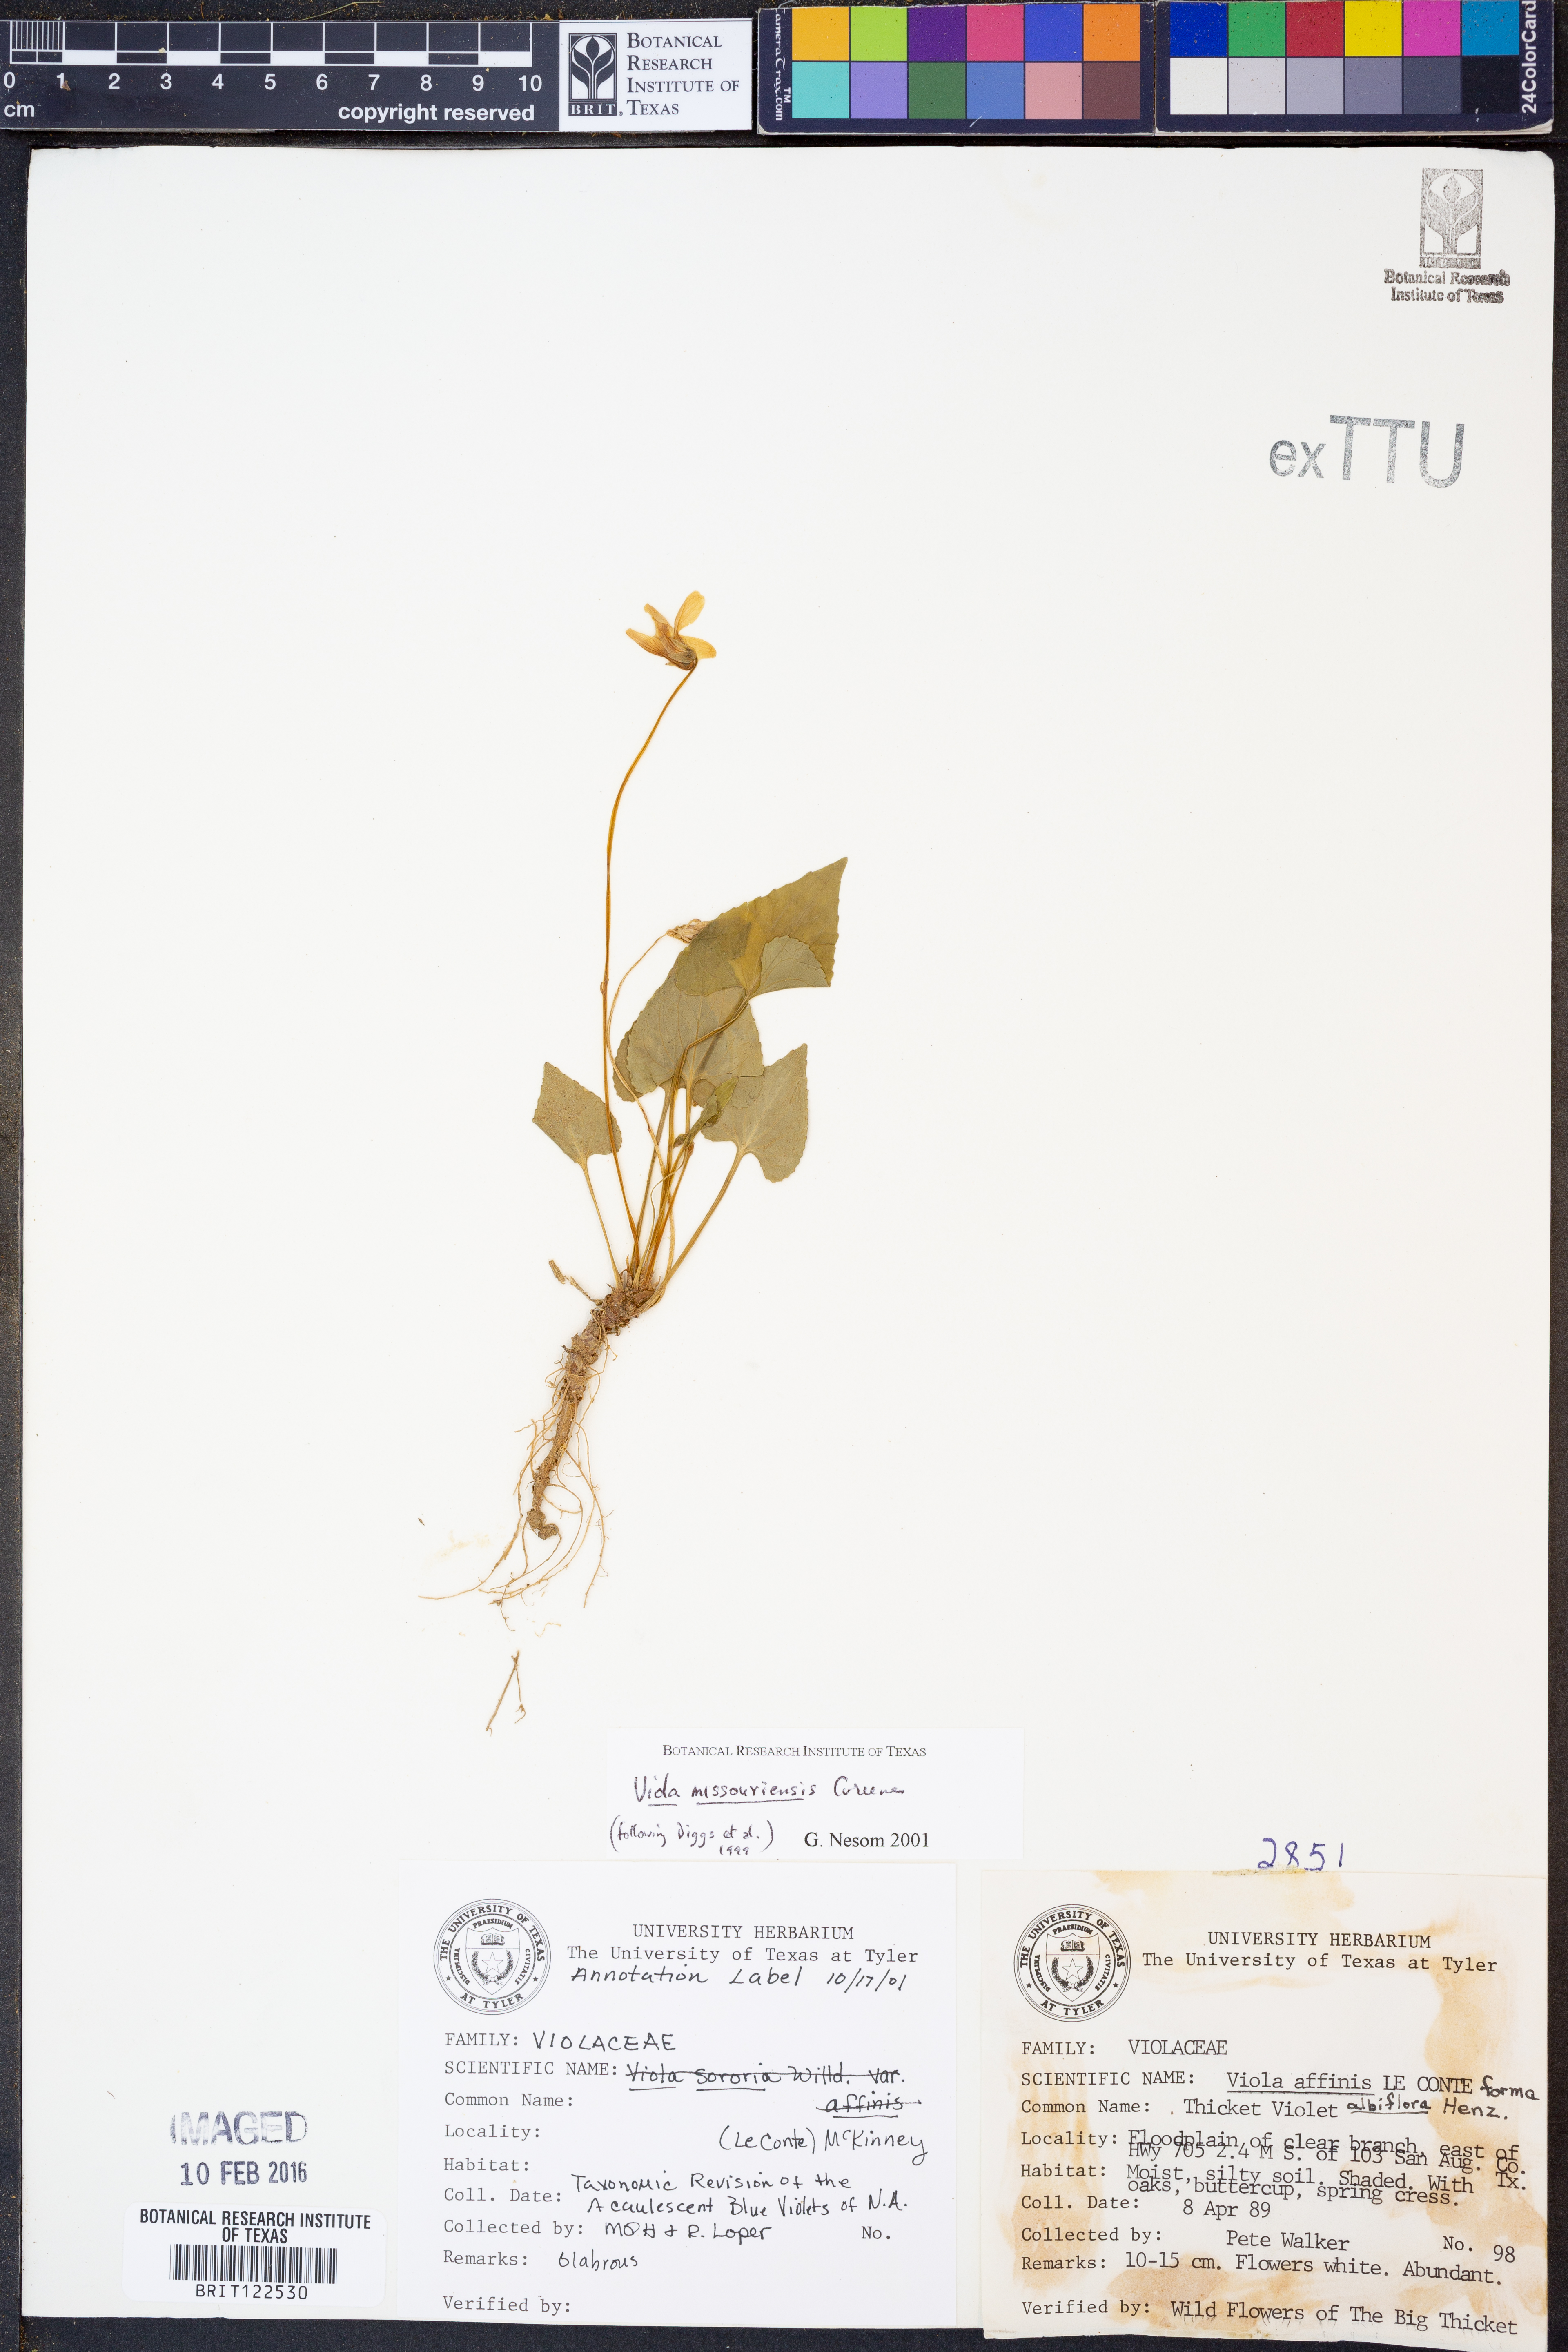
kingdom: Plantae
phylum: Tracheophyta
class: Magnoliopsida
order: Malpighiales
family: Violaceae
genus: Viola
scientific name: Viola missouriensis
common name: Missouri violet
